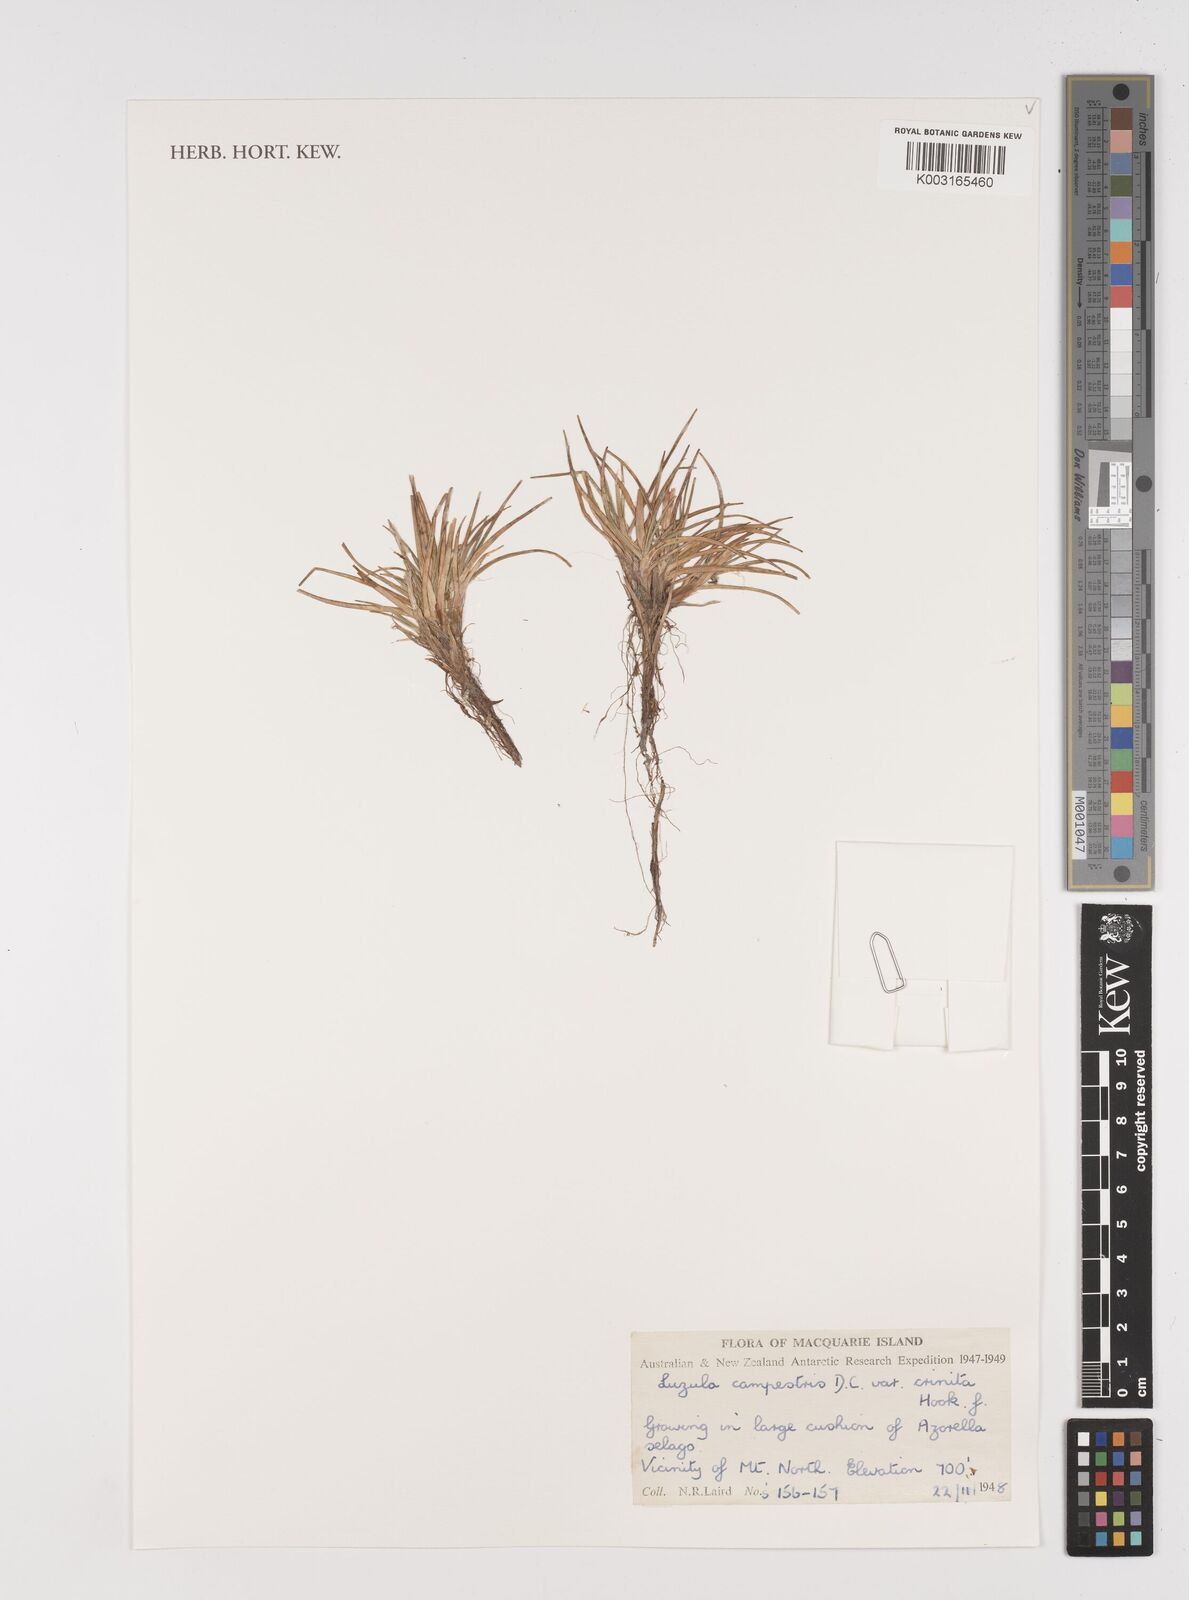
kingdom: Plantae
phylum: Tracheophyta
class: Liliopsida
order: Poales
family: Juncaceae
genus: Luzula
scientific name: Luzula crinita
